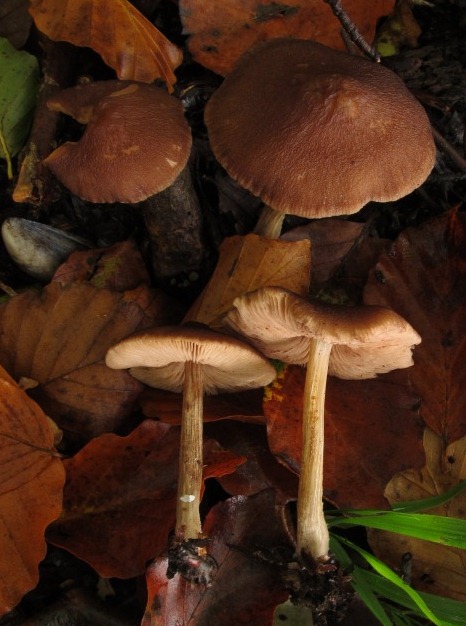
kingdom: Fungi
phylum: Basidiomycota
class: Agaricomycetes
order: Agaricales
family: Pluteaceae
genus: Pluteus
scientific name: Pluteus phlebophorus
